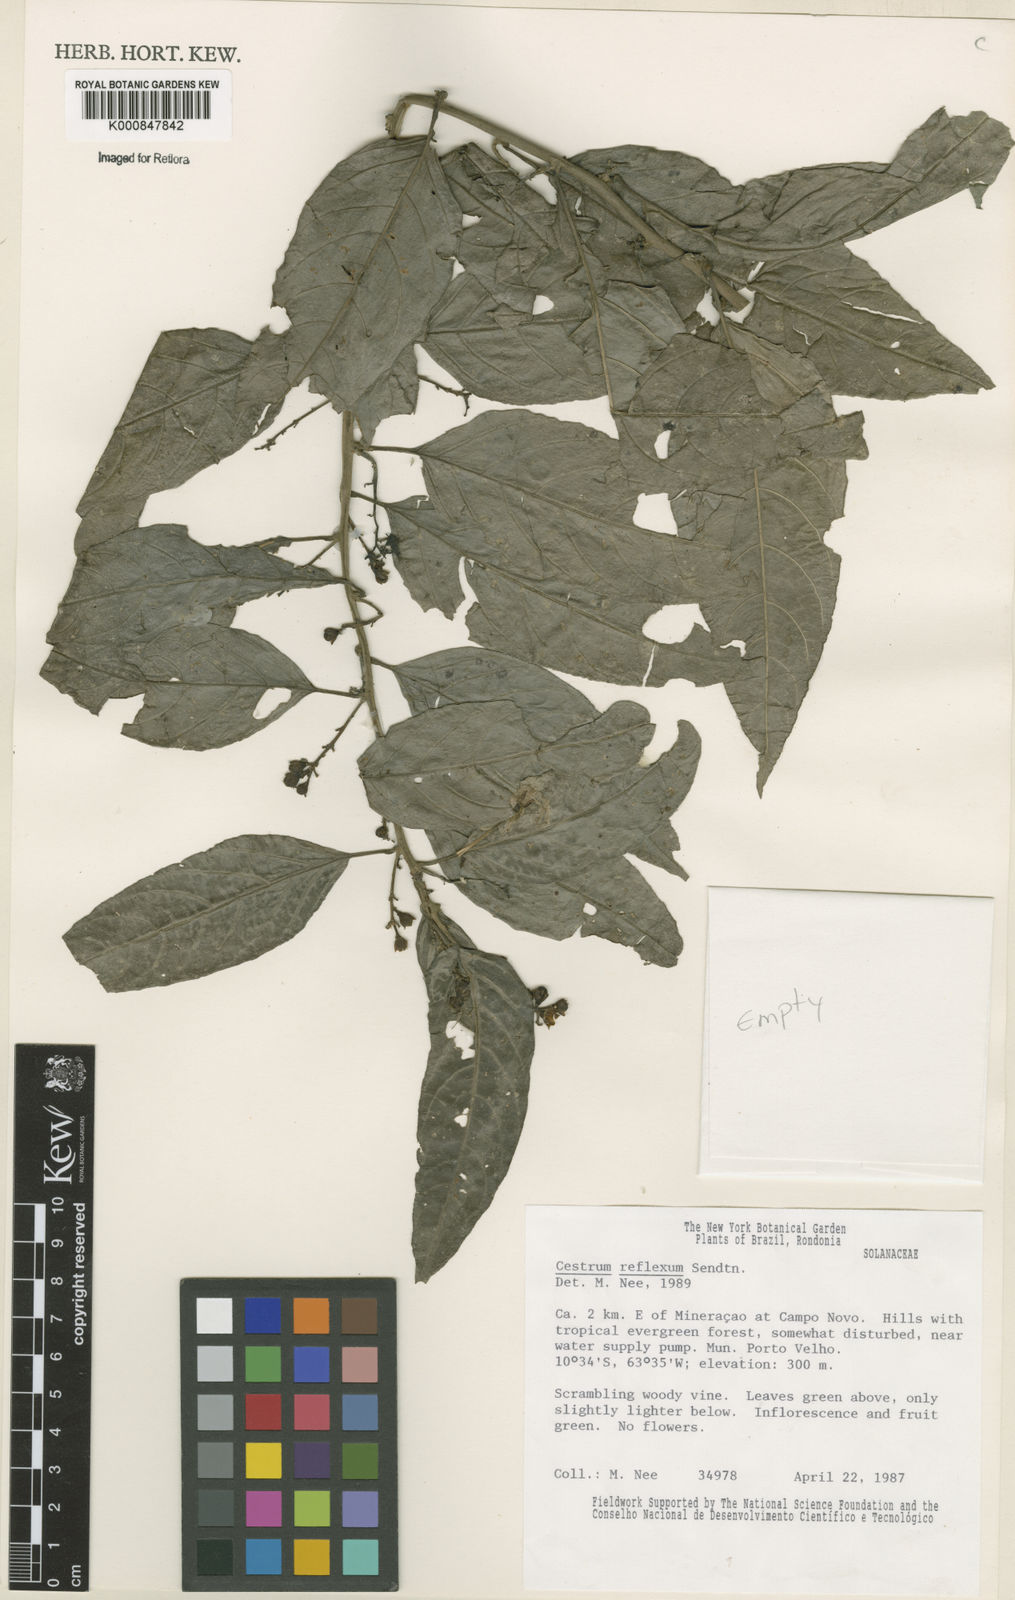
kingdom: Plantae
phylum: Tracheophyta
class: Magnoliopsida
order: Solanales
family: Solanaceae
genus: Cestrum
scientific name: Cestrum reflexum
